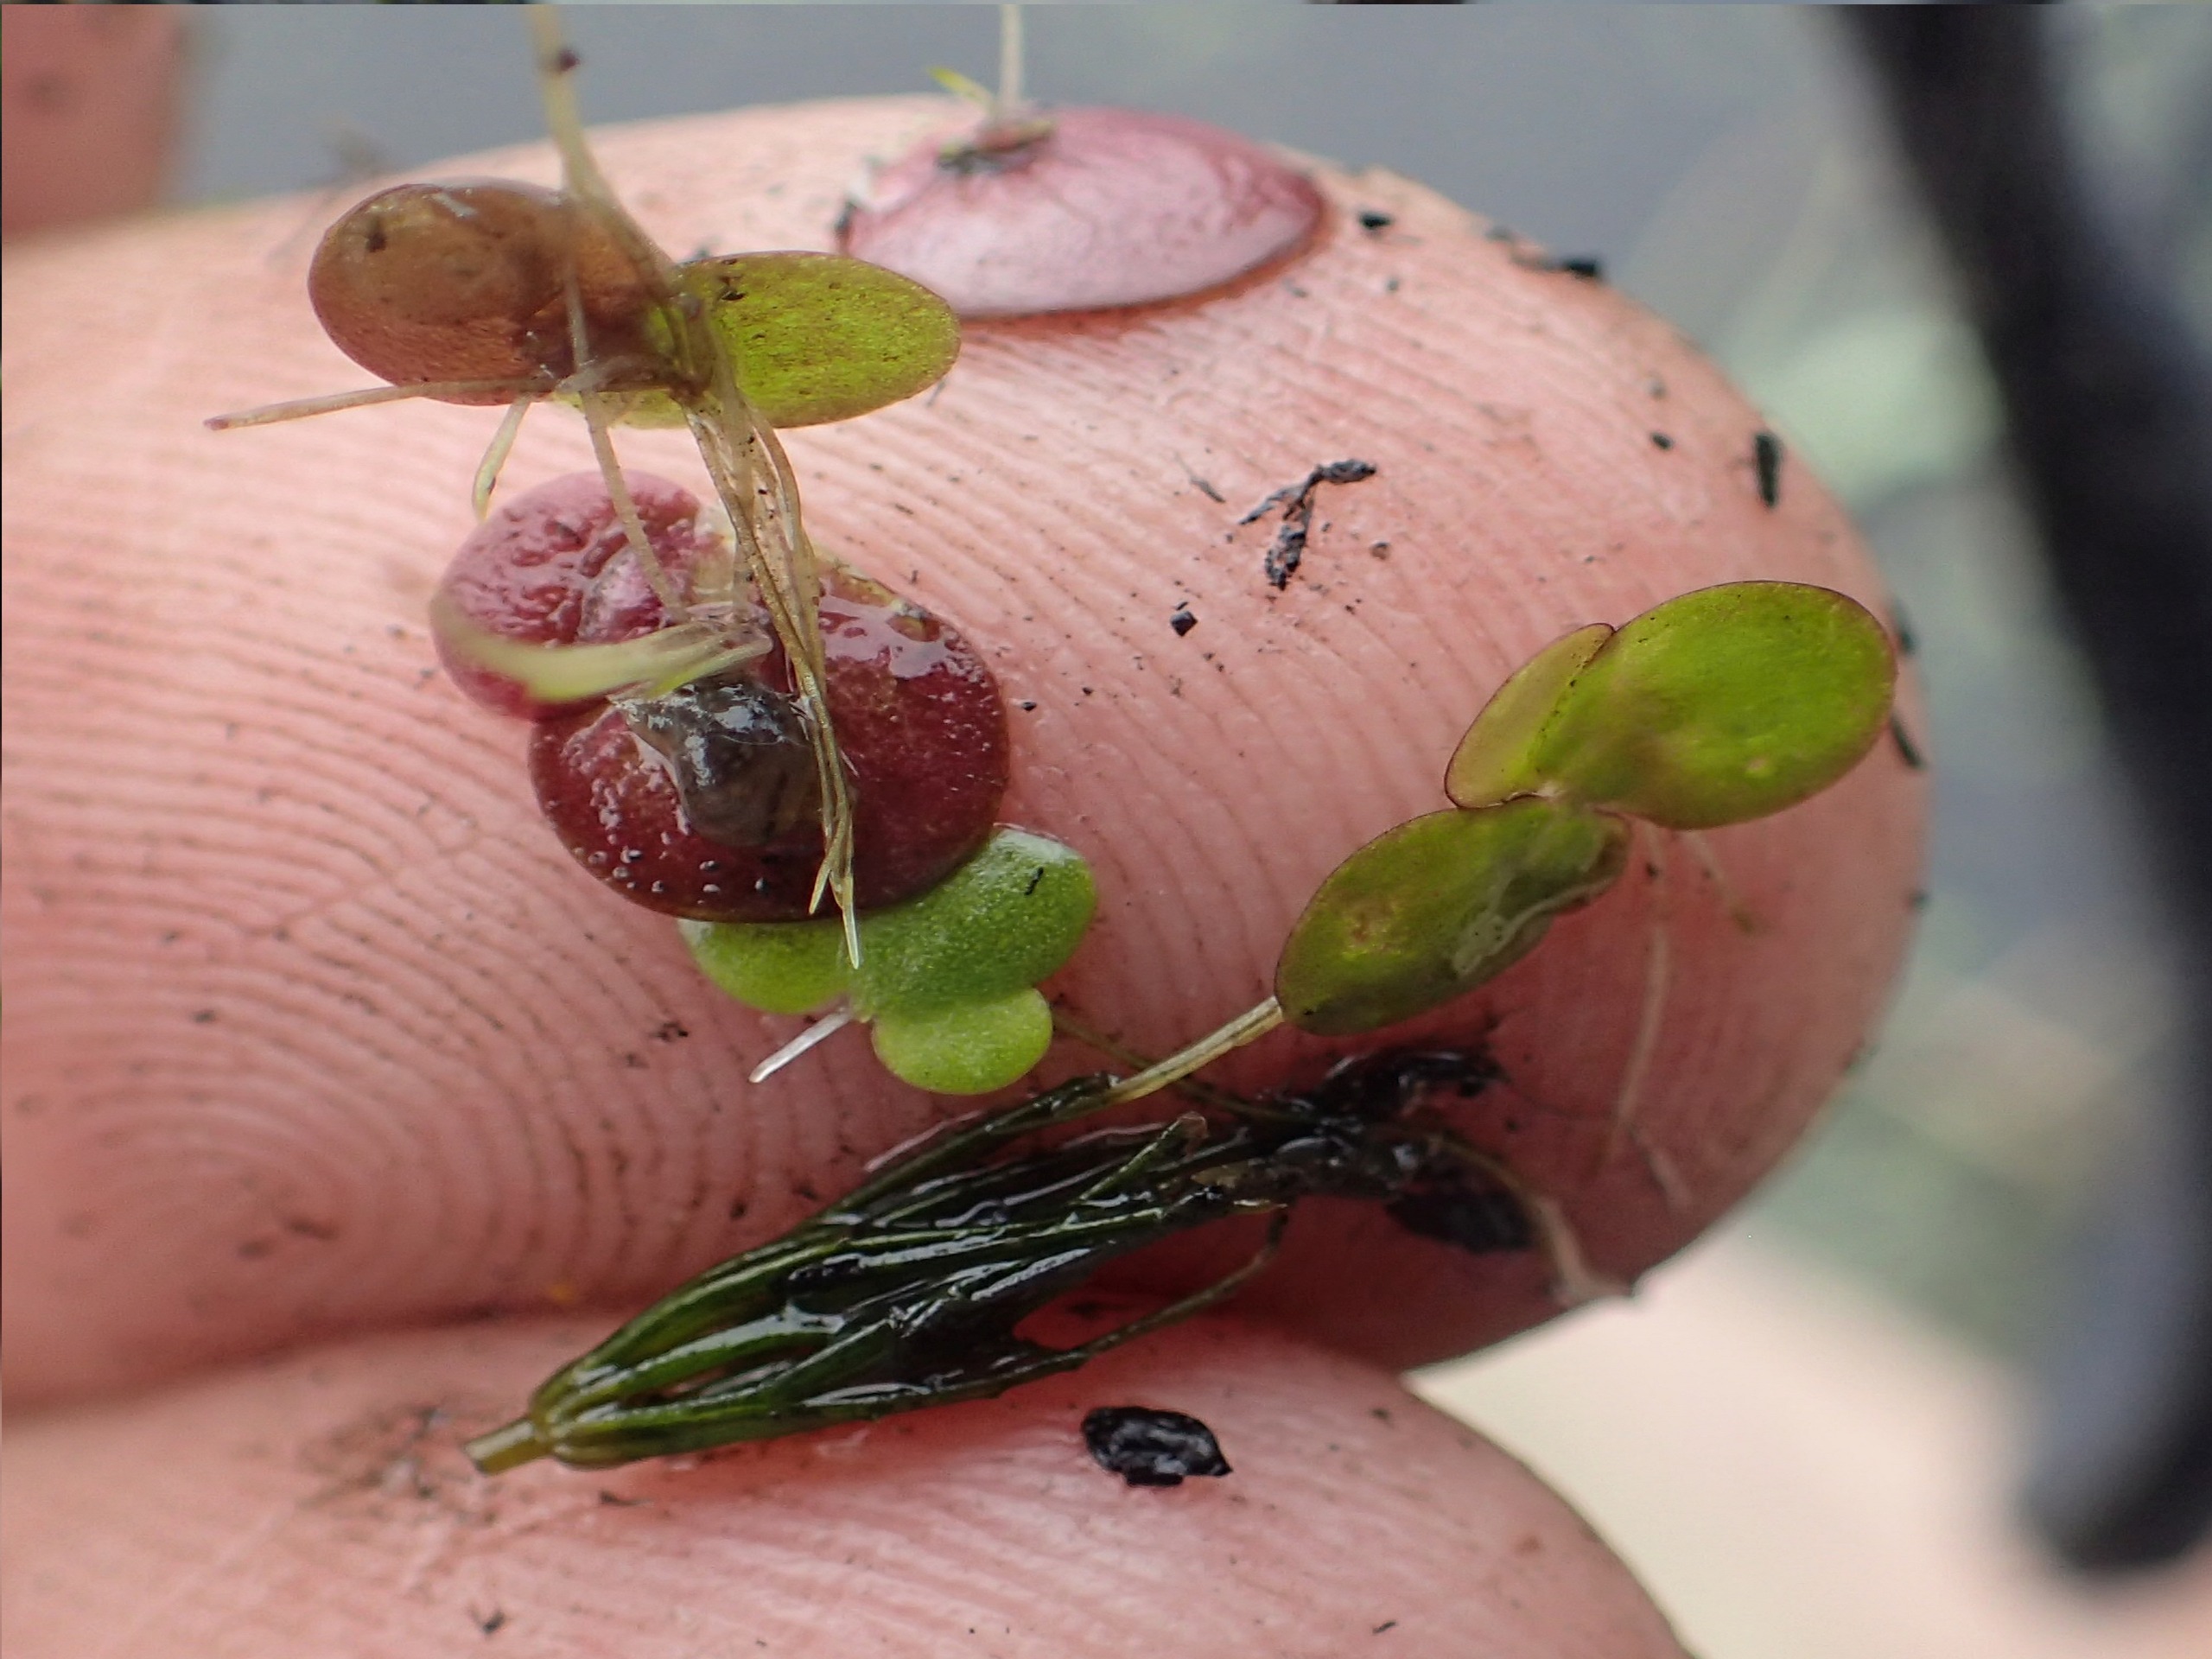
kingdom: Plantae
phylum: Tracheophyta
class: Liliopsida
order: Alismatales
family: Araceae
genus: Spirodela
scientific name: Spirodela polyrhiza
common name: Stor andemad
